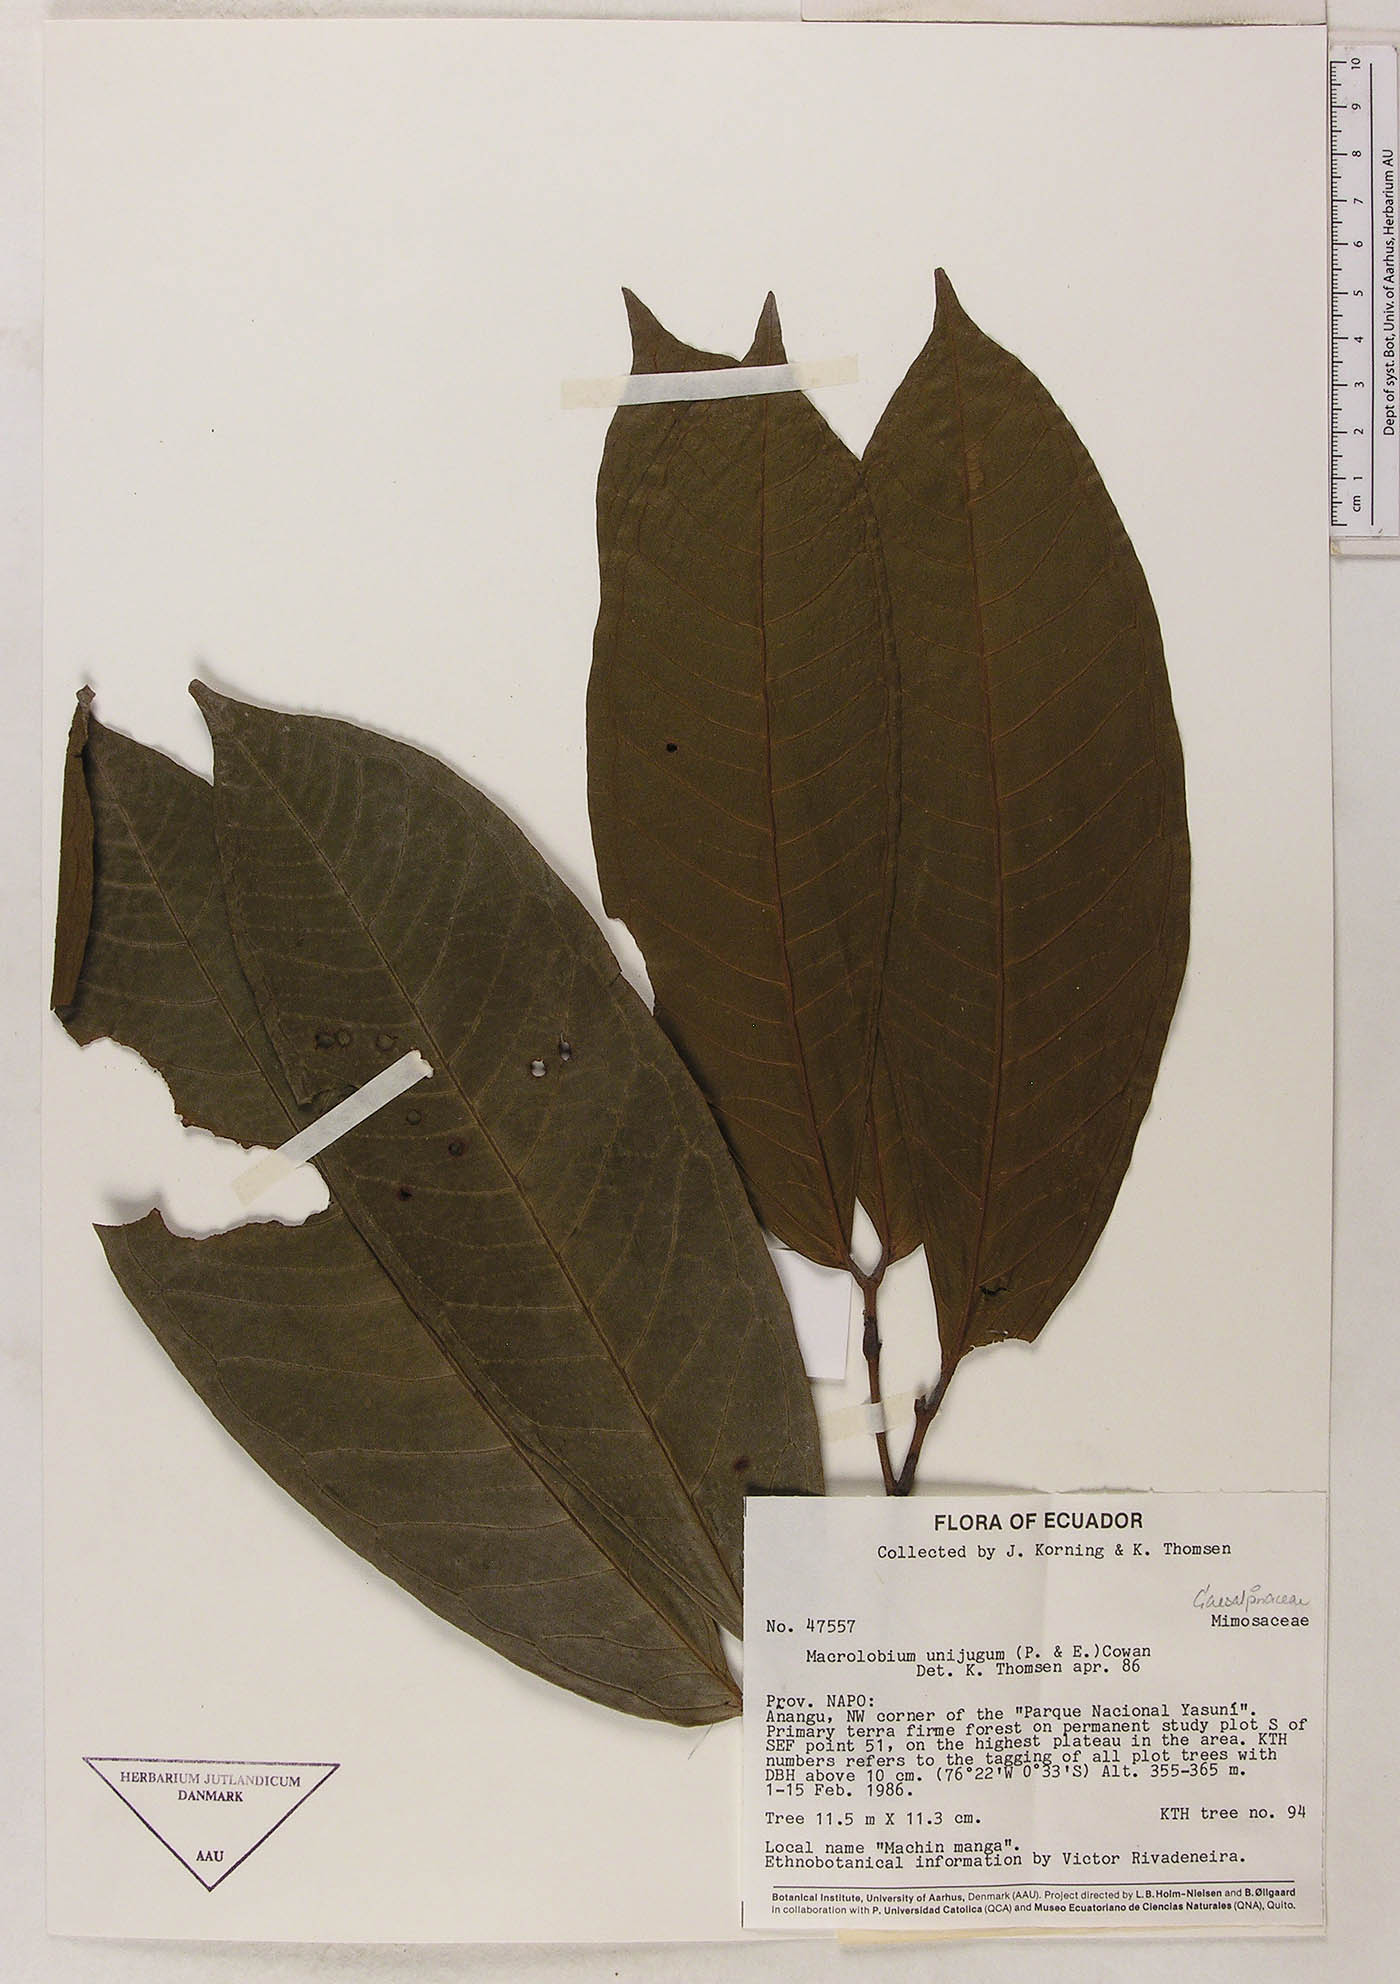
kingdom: Plantae
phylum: Tracheophyta
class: Magnoliopsida
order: Fabales
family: Fabaceae
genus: Macrolobium
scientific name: Macrolobium limbatum
